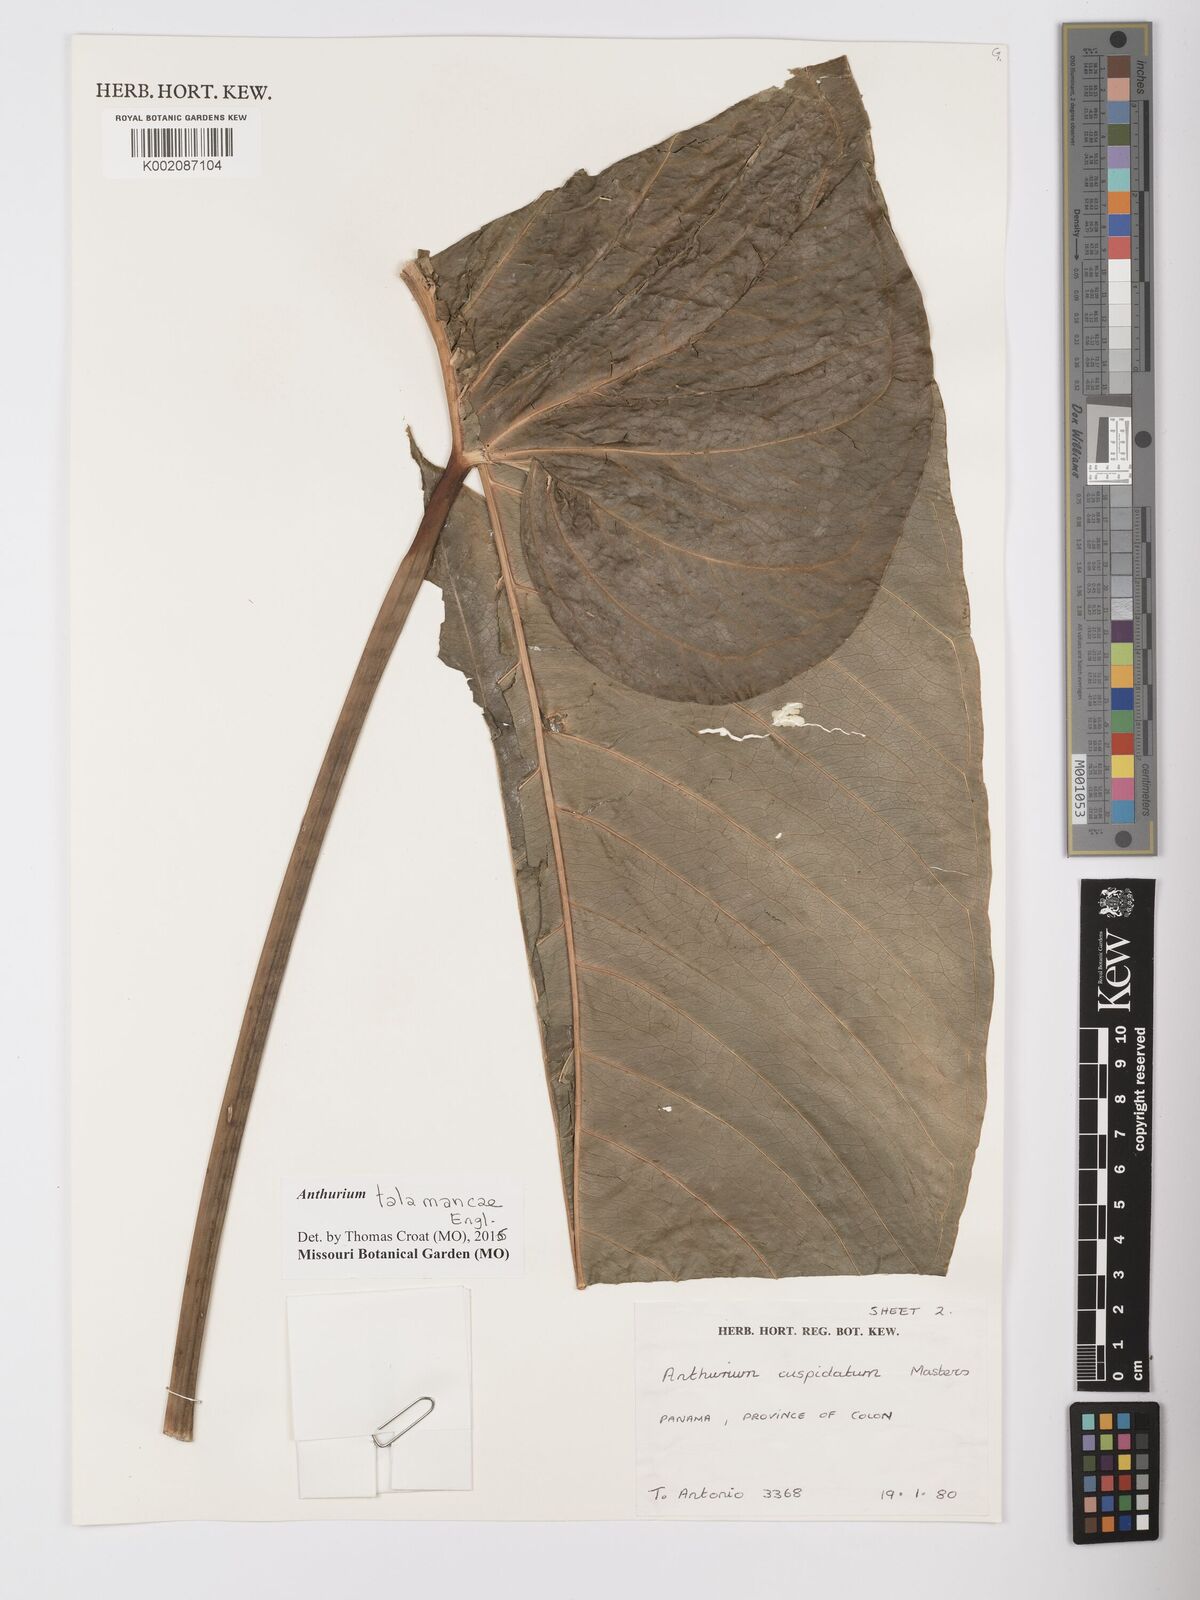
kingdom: Plantae
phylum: Tracheophyta
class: Liliopsida
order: Alismatales
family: Araceae
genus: Anthurium
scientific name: Anthurium talamancae
